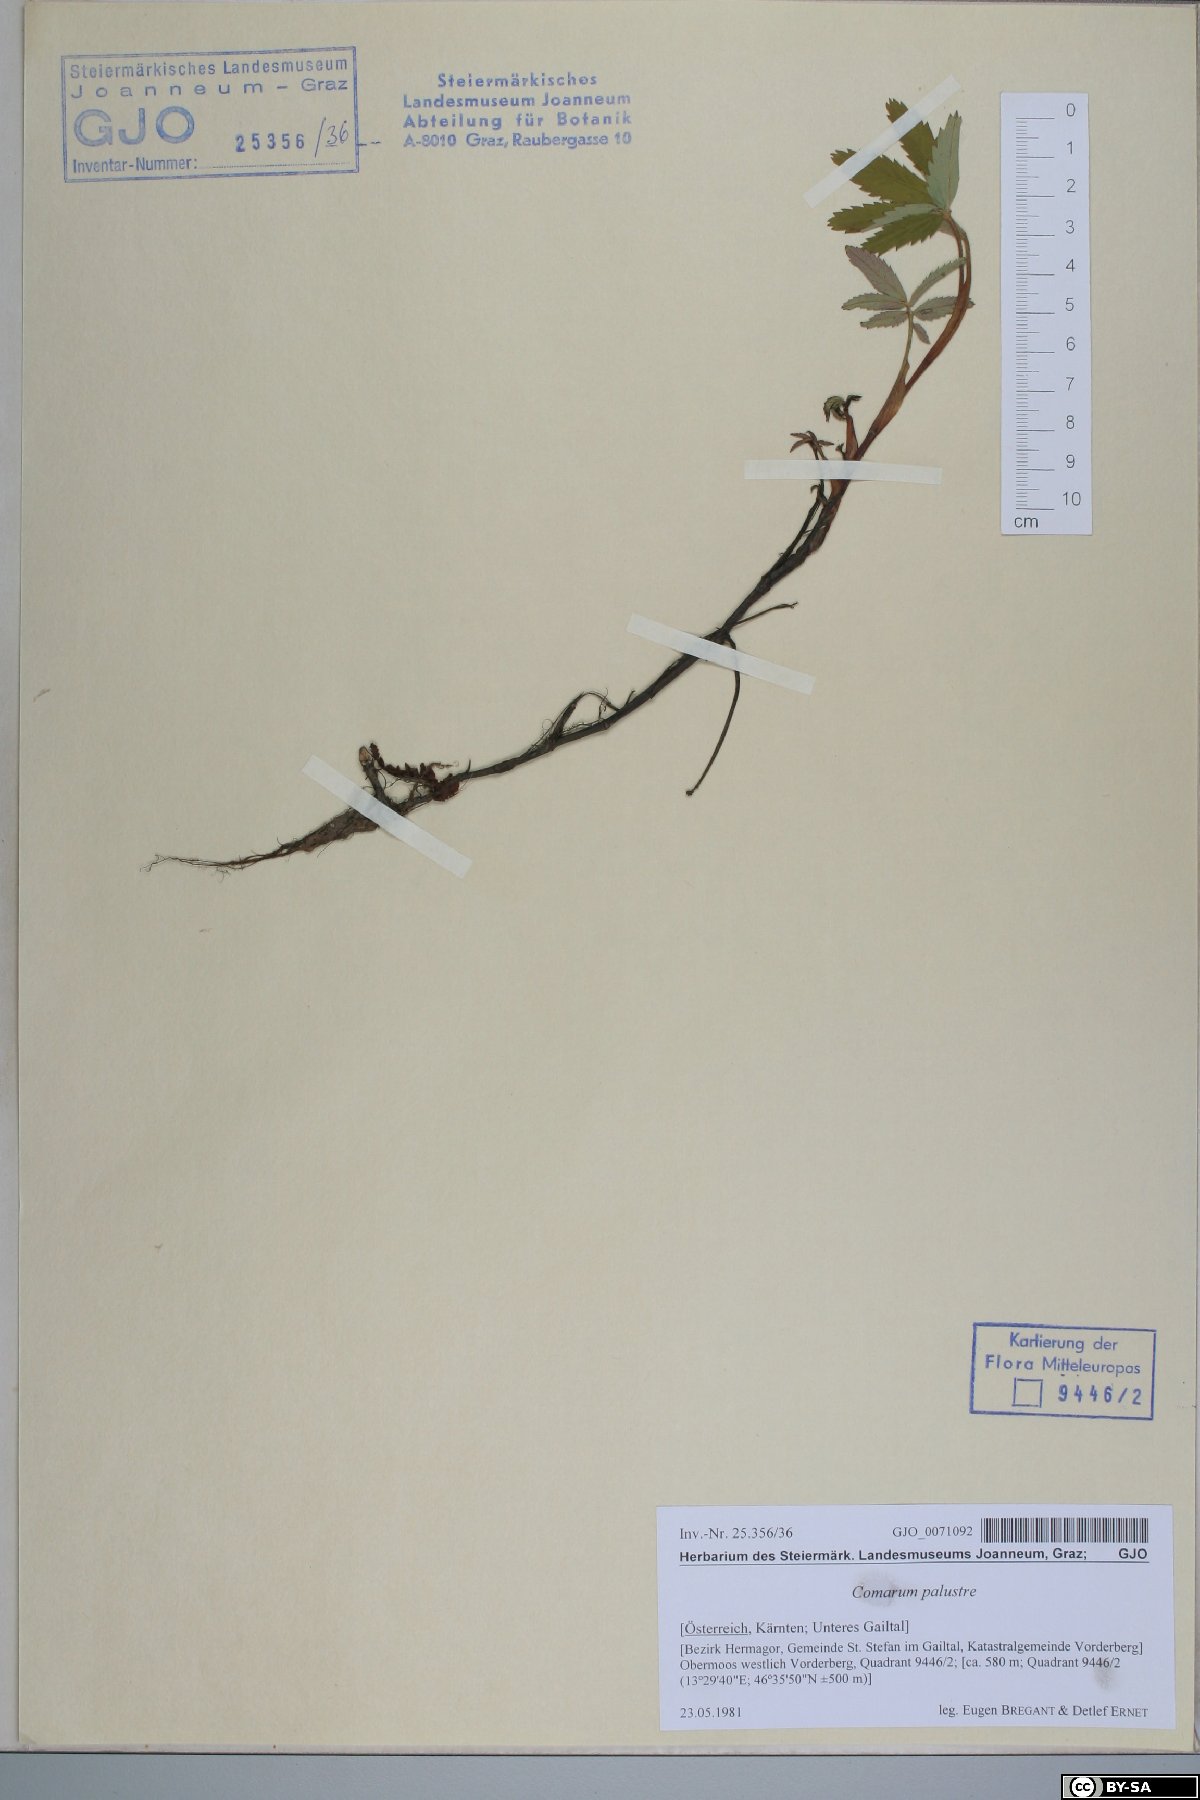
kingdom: Plantae
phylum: Tracheophyta
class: Magnoliopsida
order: Rosales
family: Rosaceae
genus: Comarum
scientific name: Comarum palustre
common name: Marsh cinquefoil
